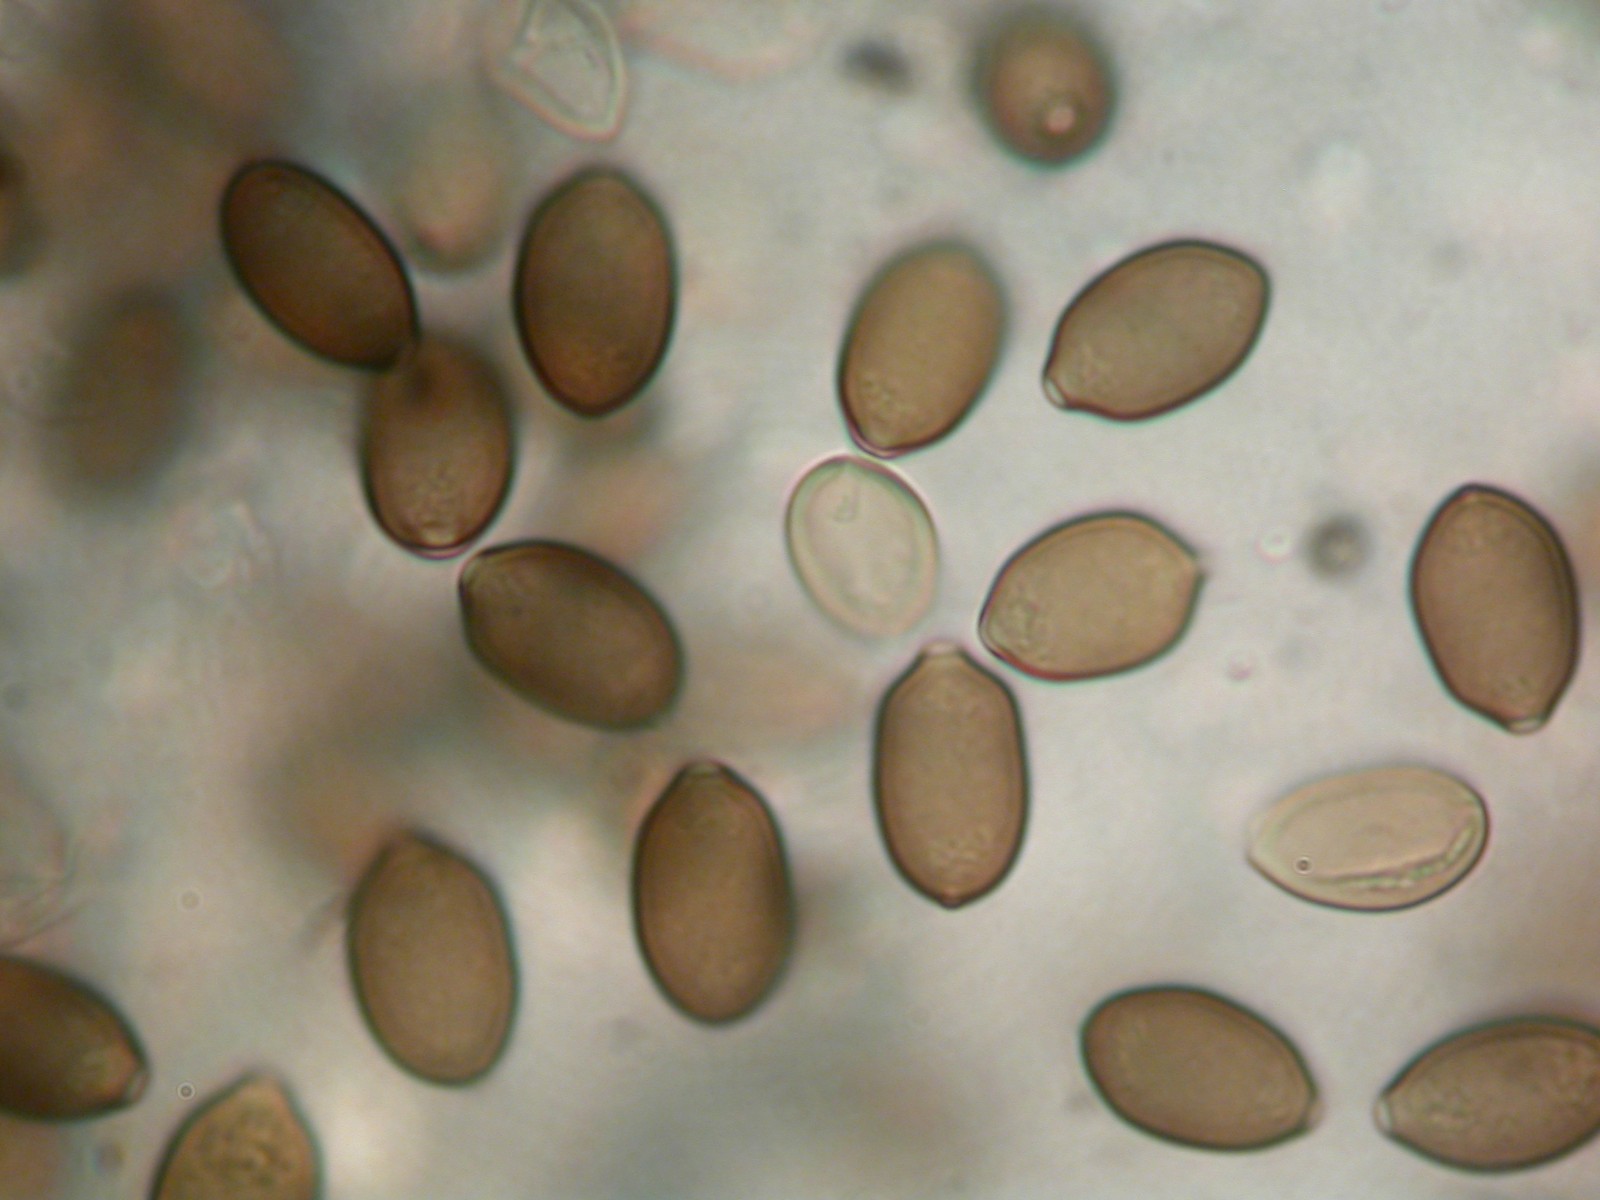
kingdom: Fungi
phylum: Basidiomycota
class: Agaricomycetes
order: Agaricales
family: Strophariaceae
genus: Protostropharia
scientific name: Protostropharia
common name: bredblad
